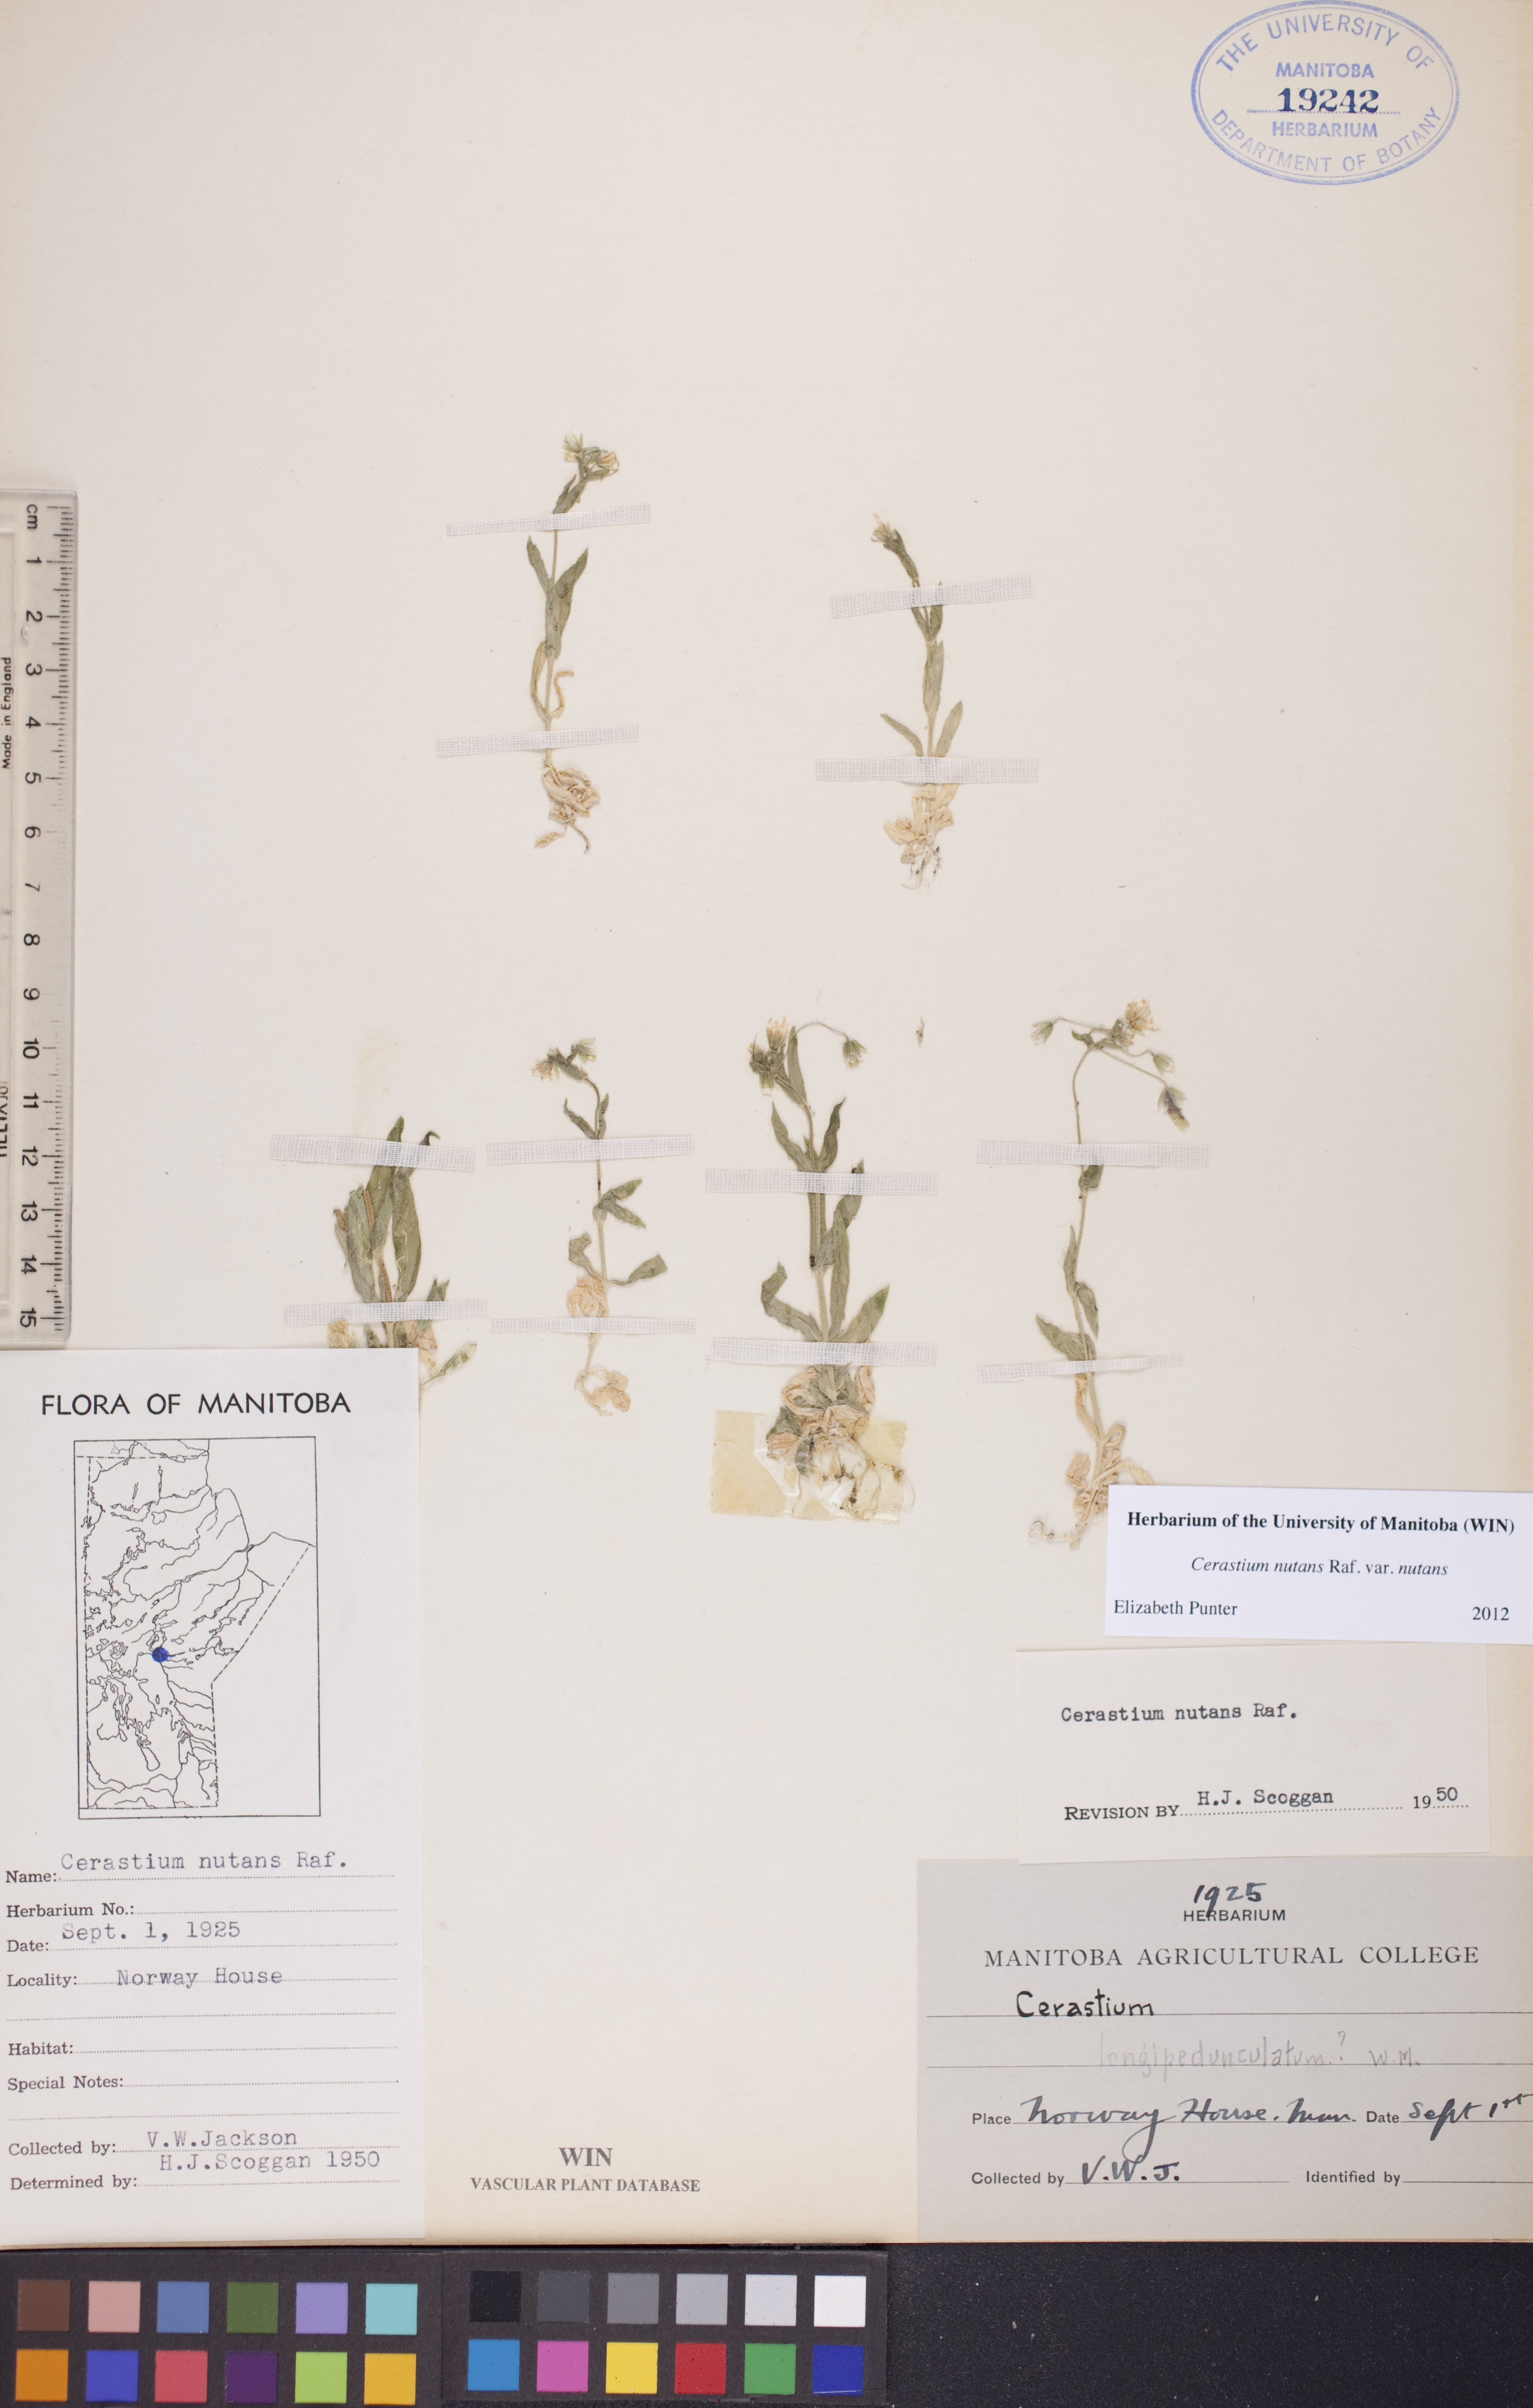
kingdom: Plantae
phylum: Tracheophyta
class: Magnoliopsida
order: Caryophyllales
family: Caryophyllaceae
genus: Cerastium
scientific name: Cerastium nutans
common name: Long-stalked chickweed
